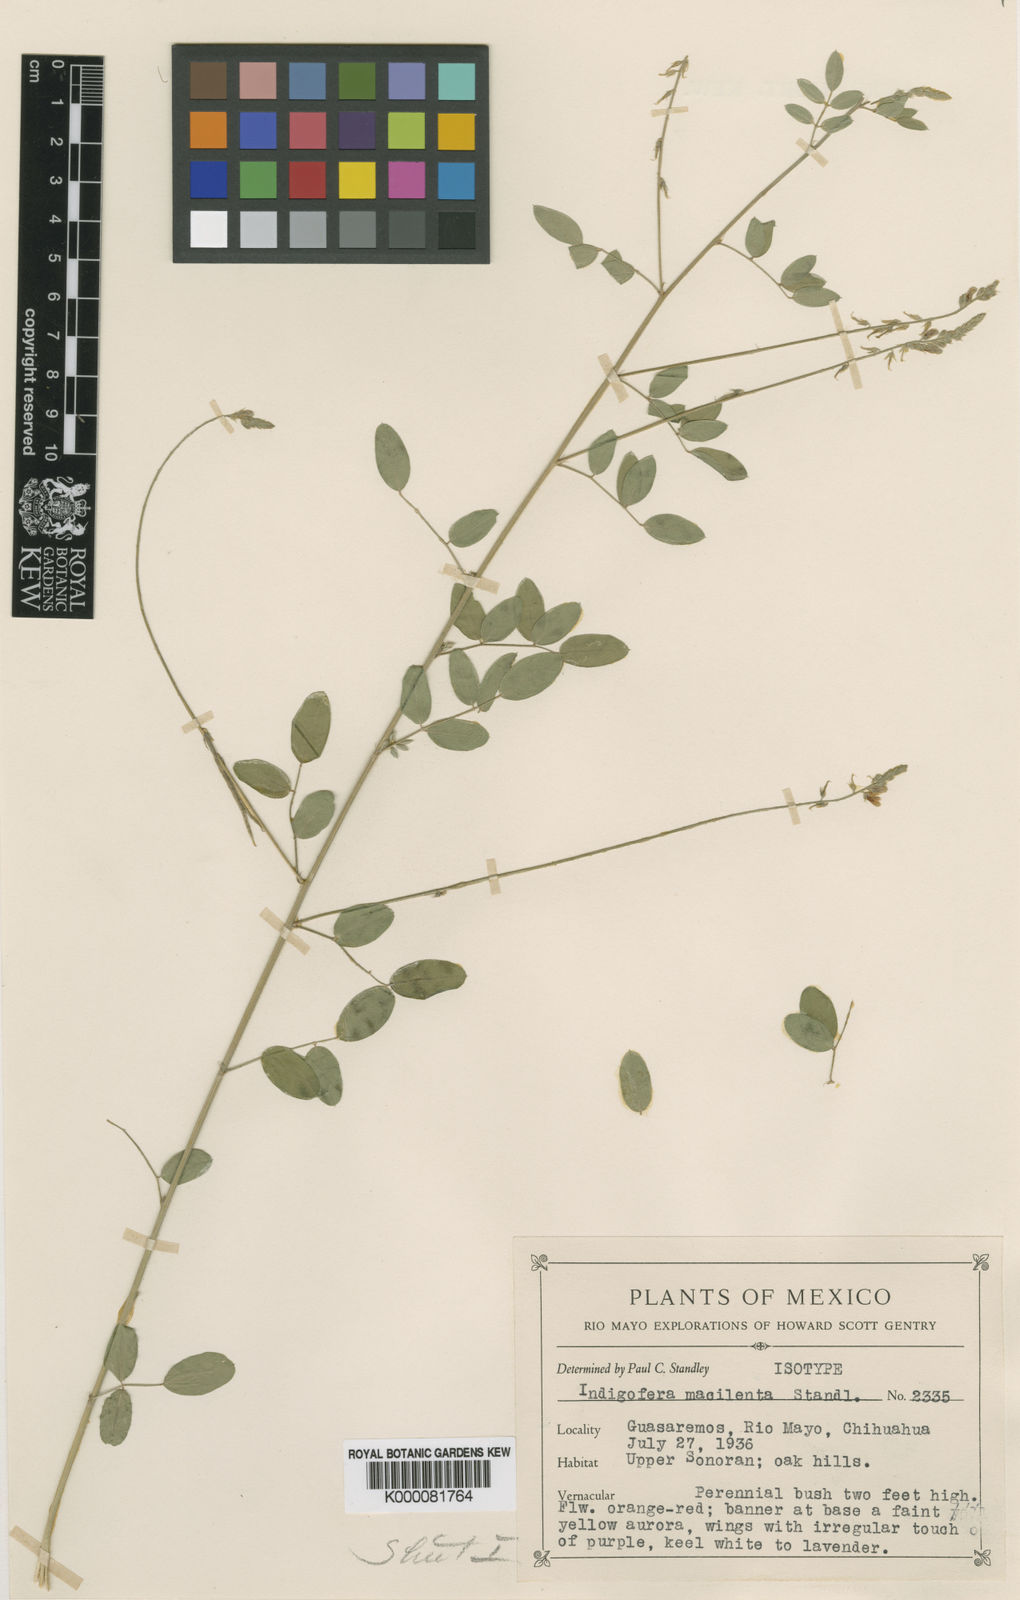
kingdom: Plantae
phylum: Tracheophyta
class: Magnoliopsida
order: Fabales
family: Fabaceae
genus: Indigofera
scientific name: Indigofera subulata
